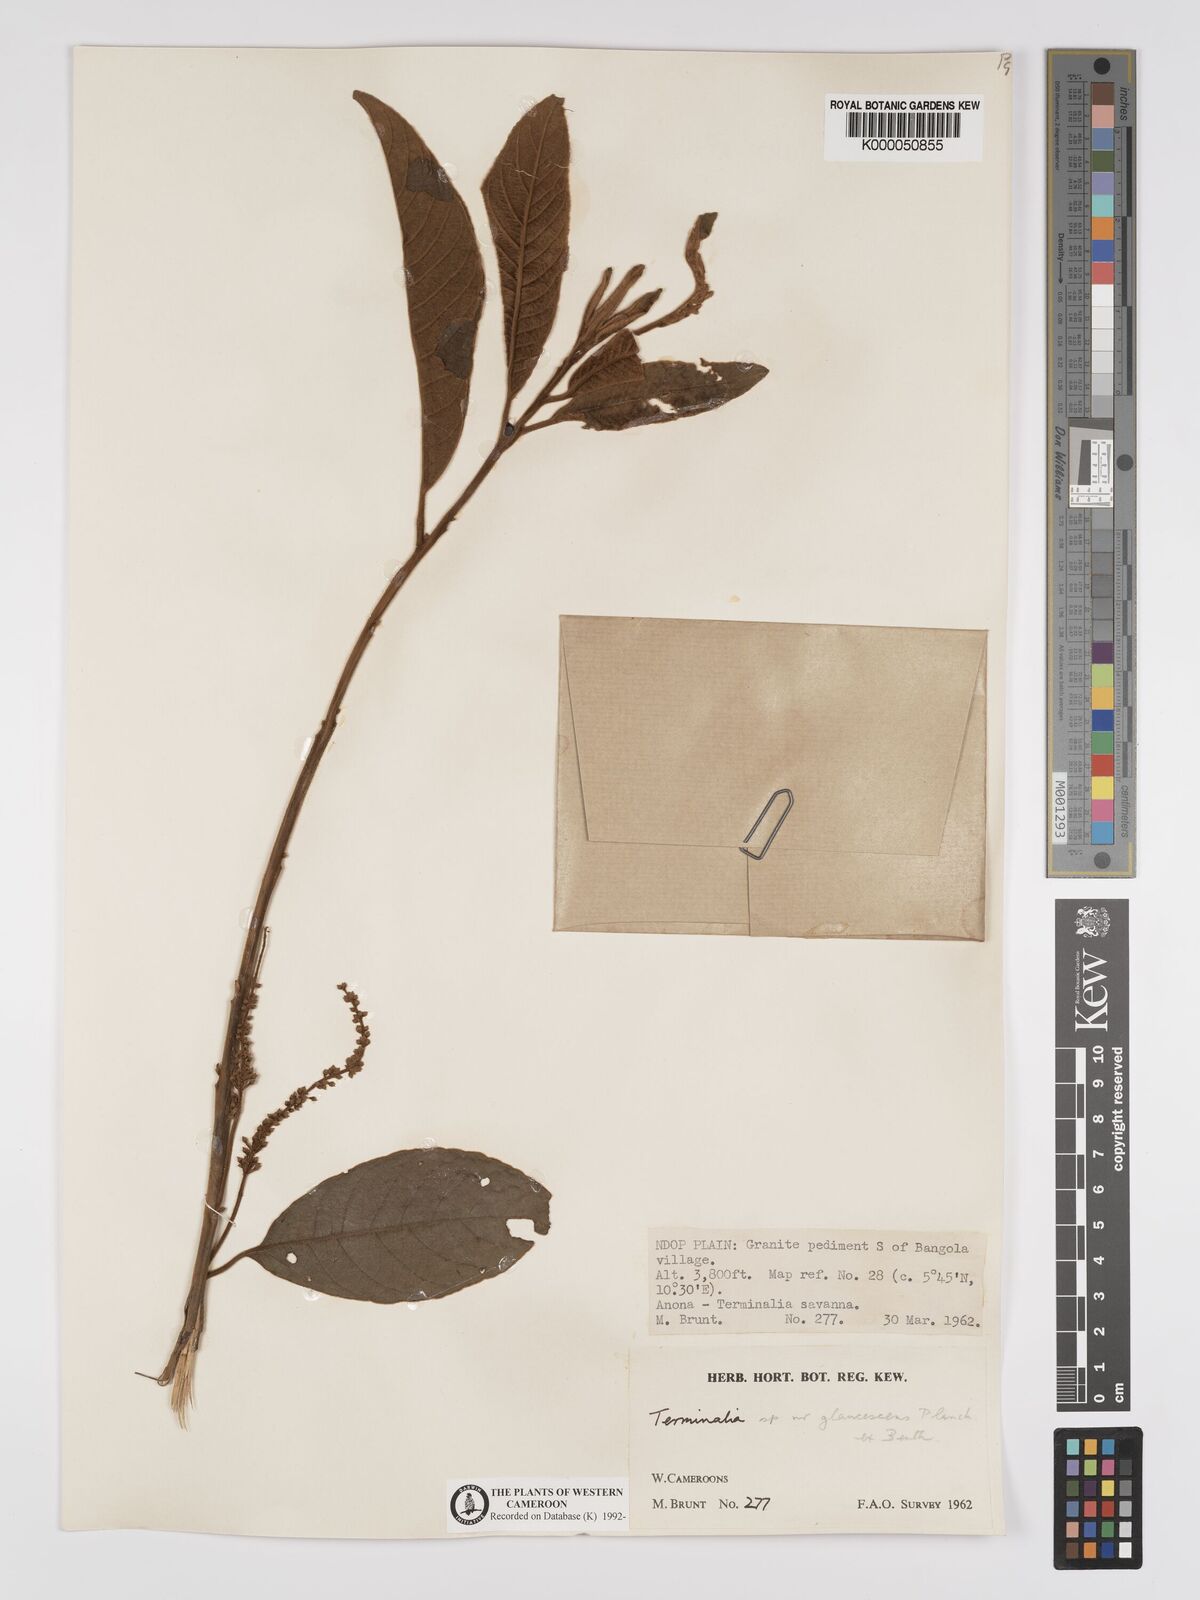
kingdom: Plantae
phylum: Tracheophyta
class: Magnoliopsida
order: Myrtales
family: Combretaceae
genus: Terminalia
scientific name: Terminalia schimperiana
